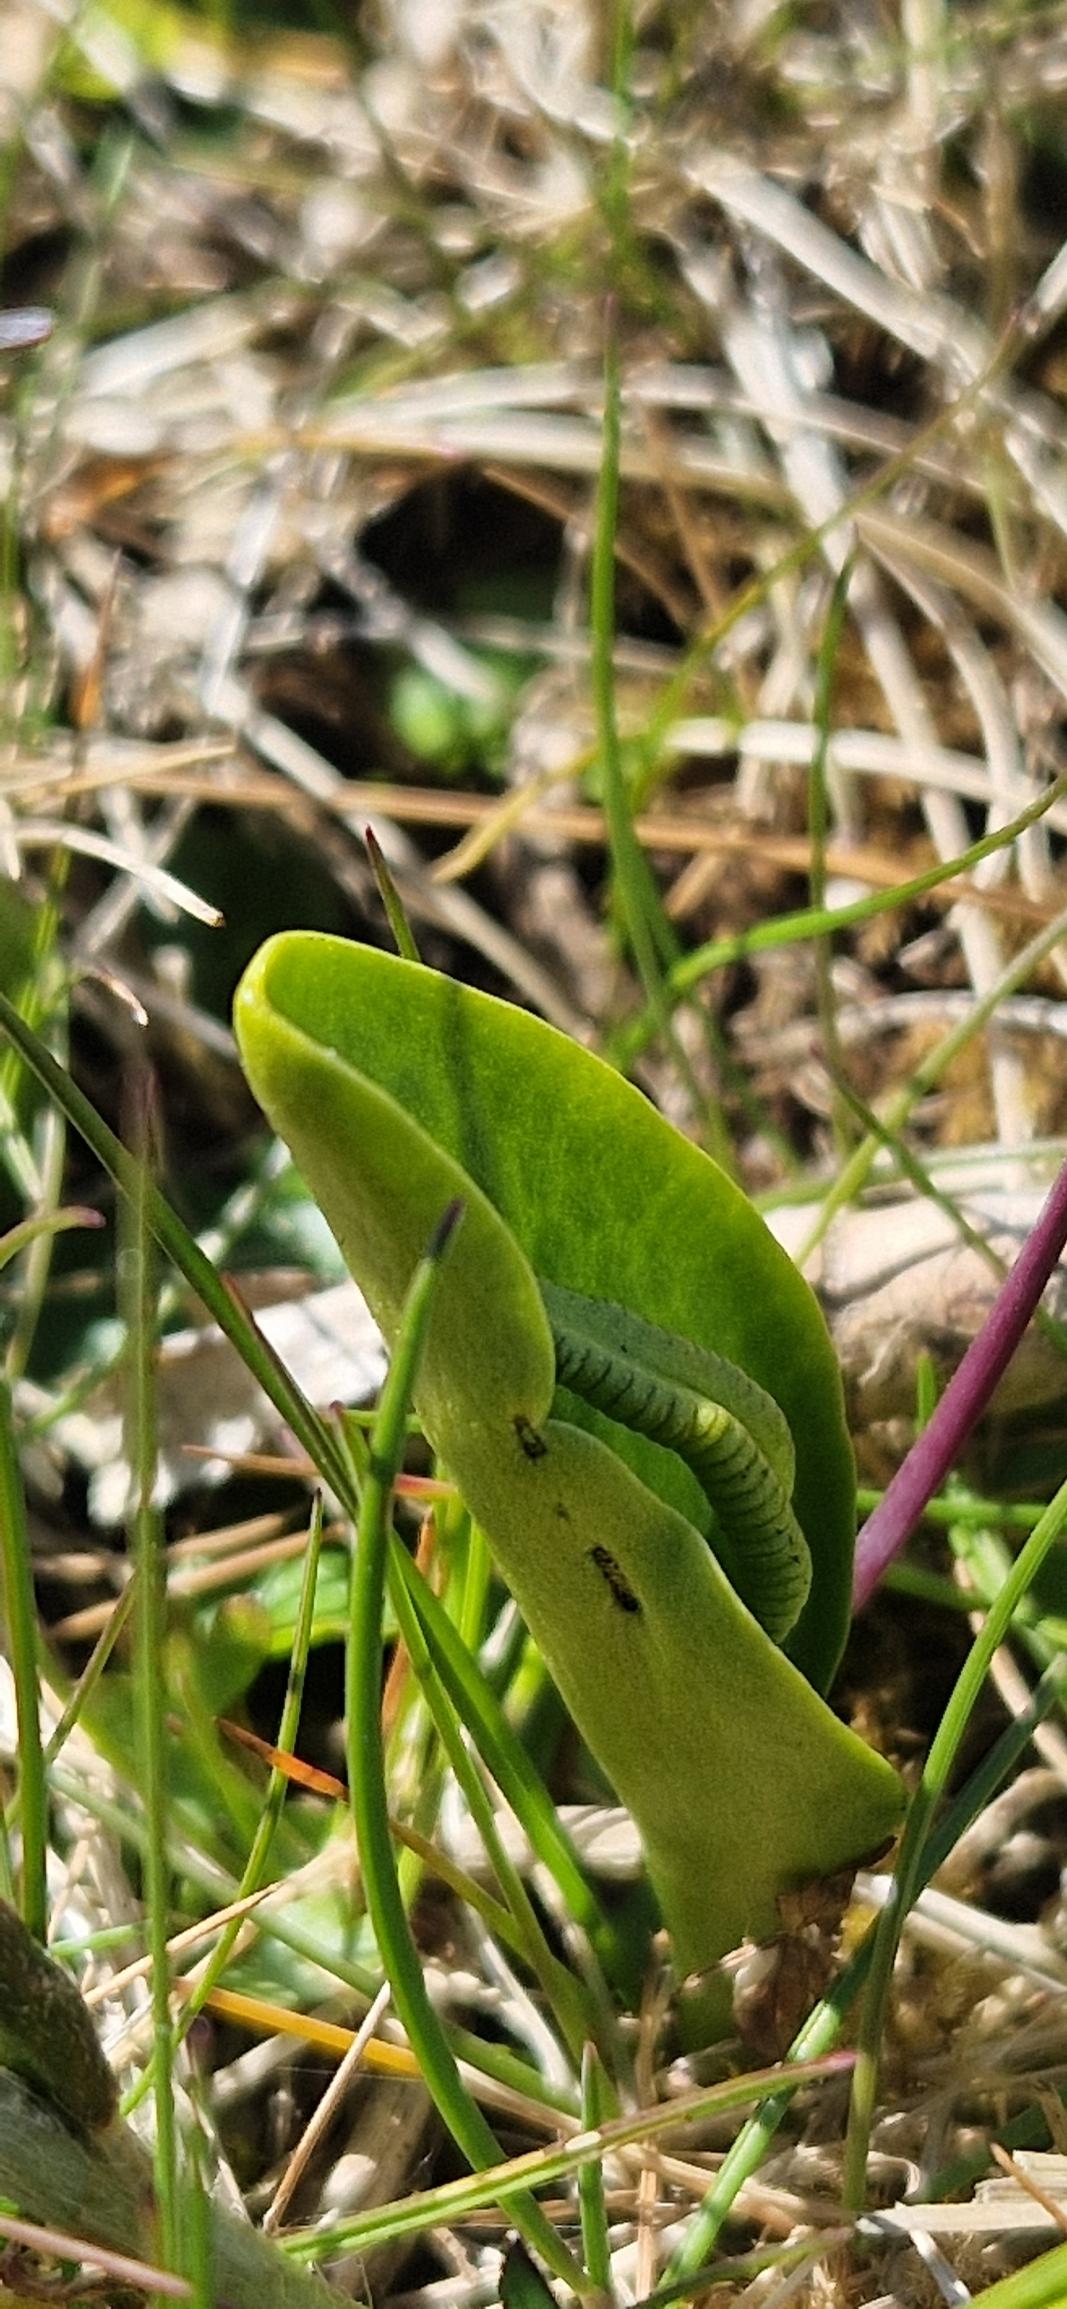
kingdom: Plantae
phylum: Tracheophyta
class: Polypodiopsida
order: Ophioglossales
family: Ophioglossaceae
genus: Ophioglossum
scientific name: Ophioglossum vulgatum
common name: Slangetunge
